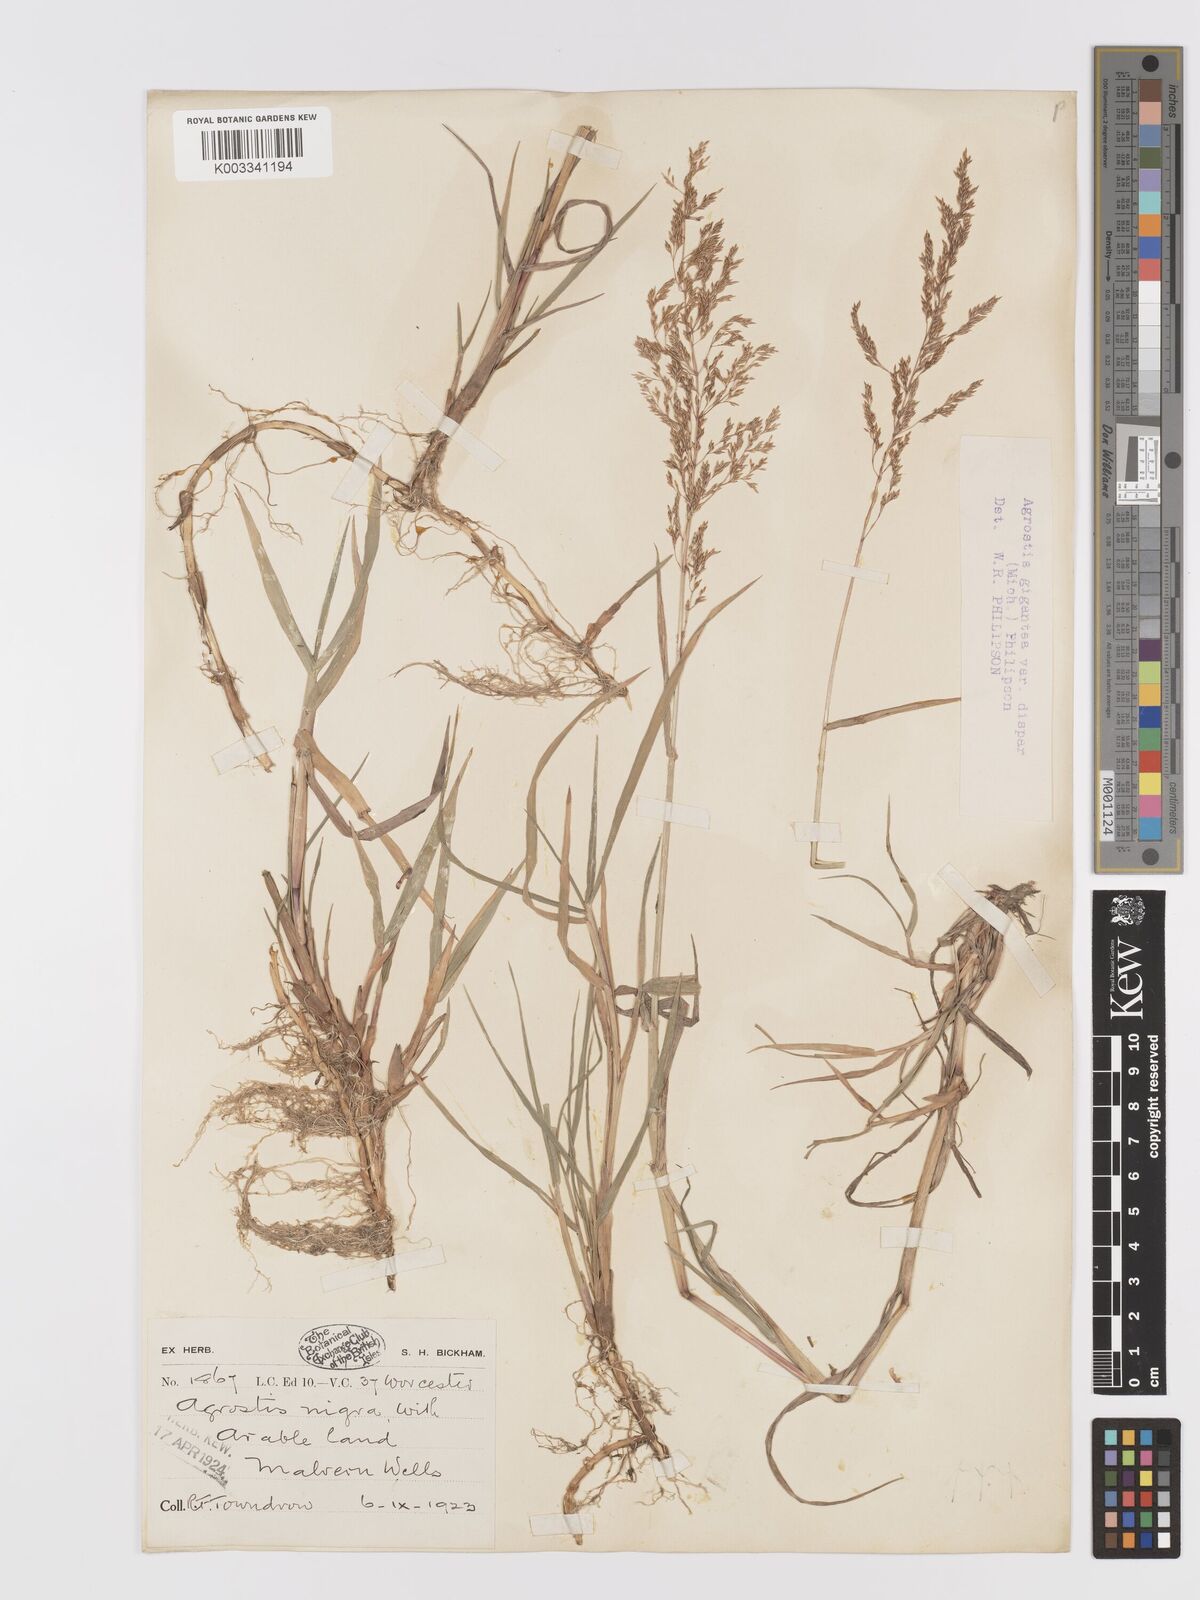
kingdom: Plantae
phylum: Tracheophyta
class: Liliopsida
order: Poales
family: Poaceae
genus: Agrostis
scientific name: Agrostis gigantea
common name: Black bent
